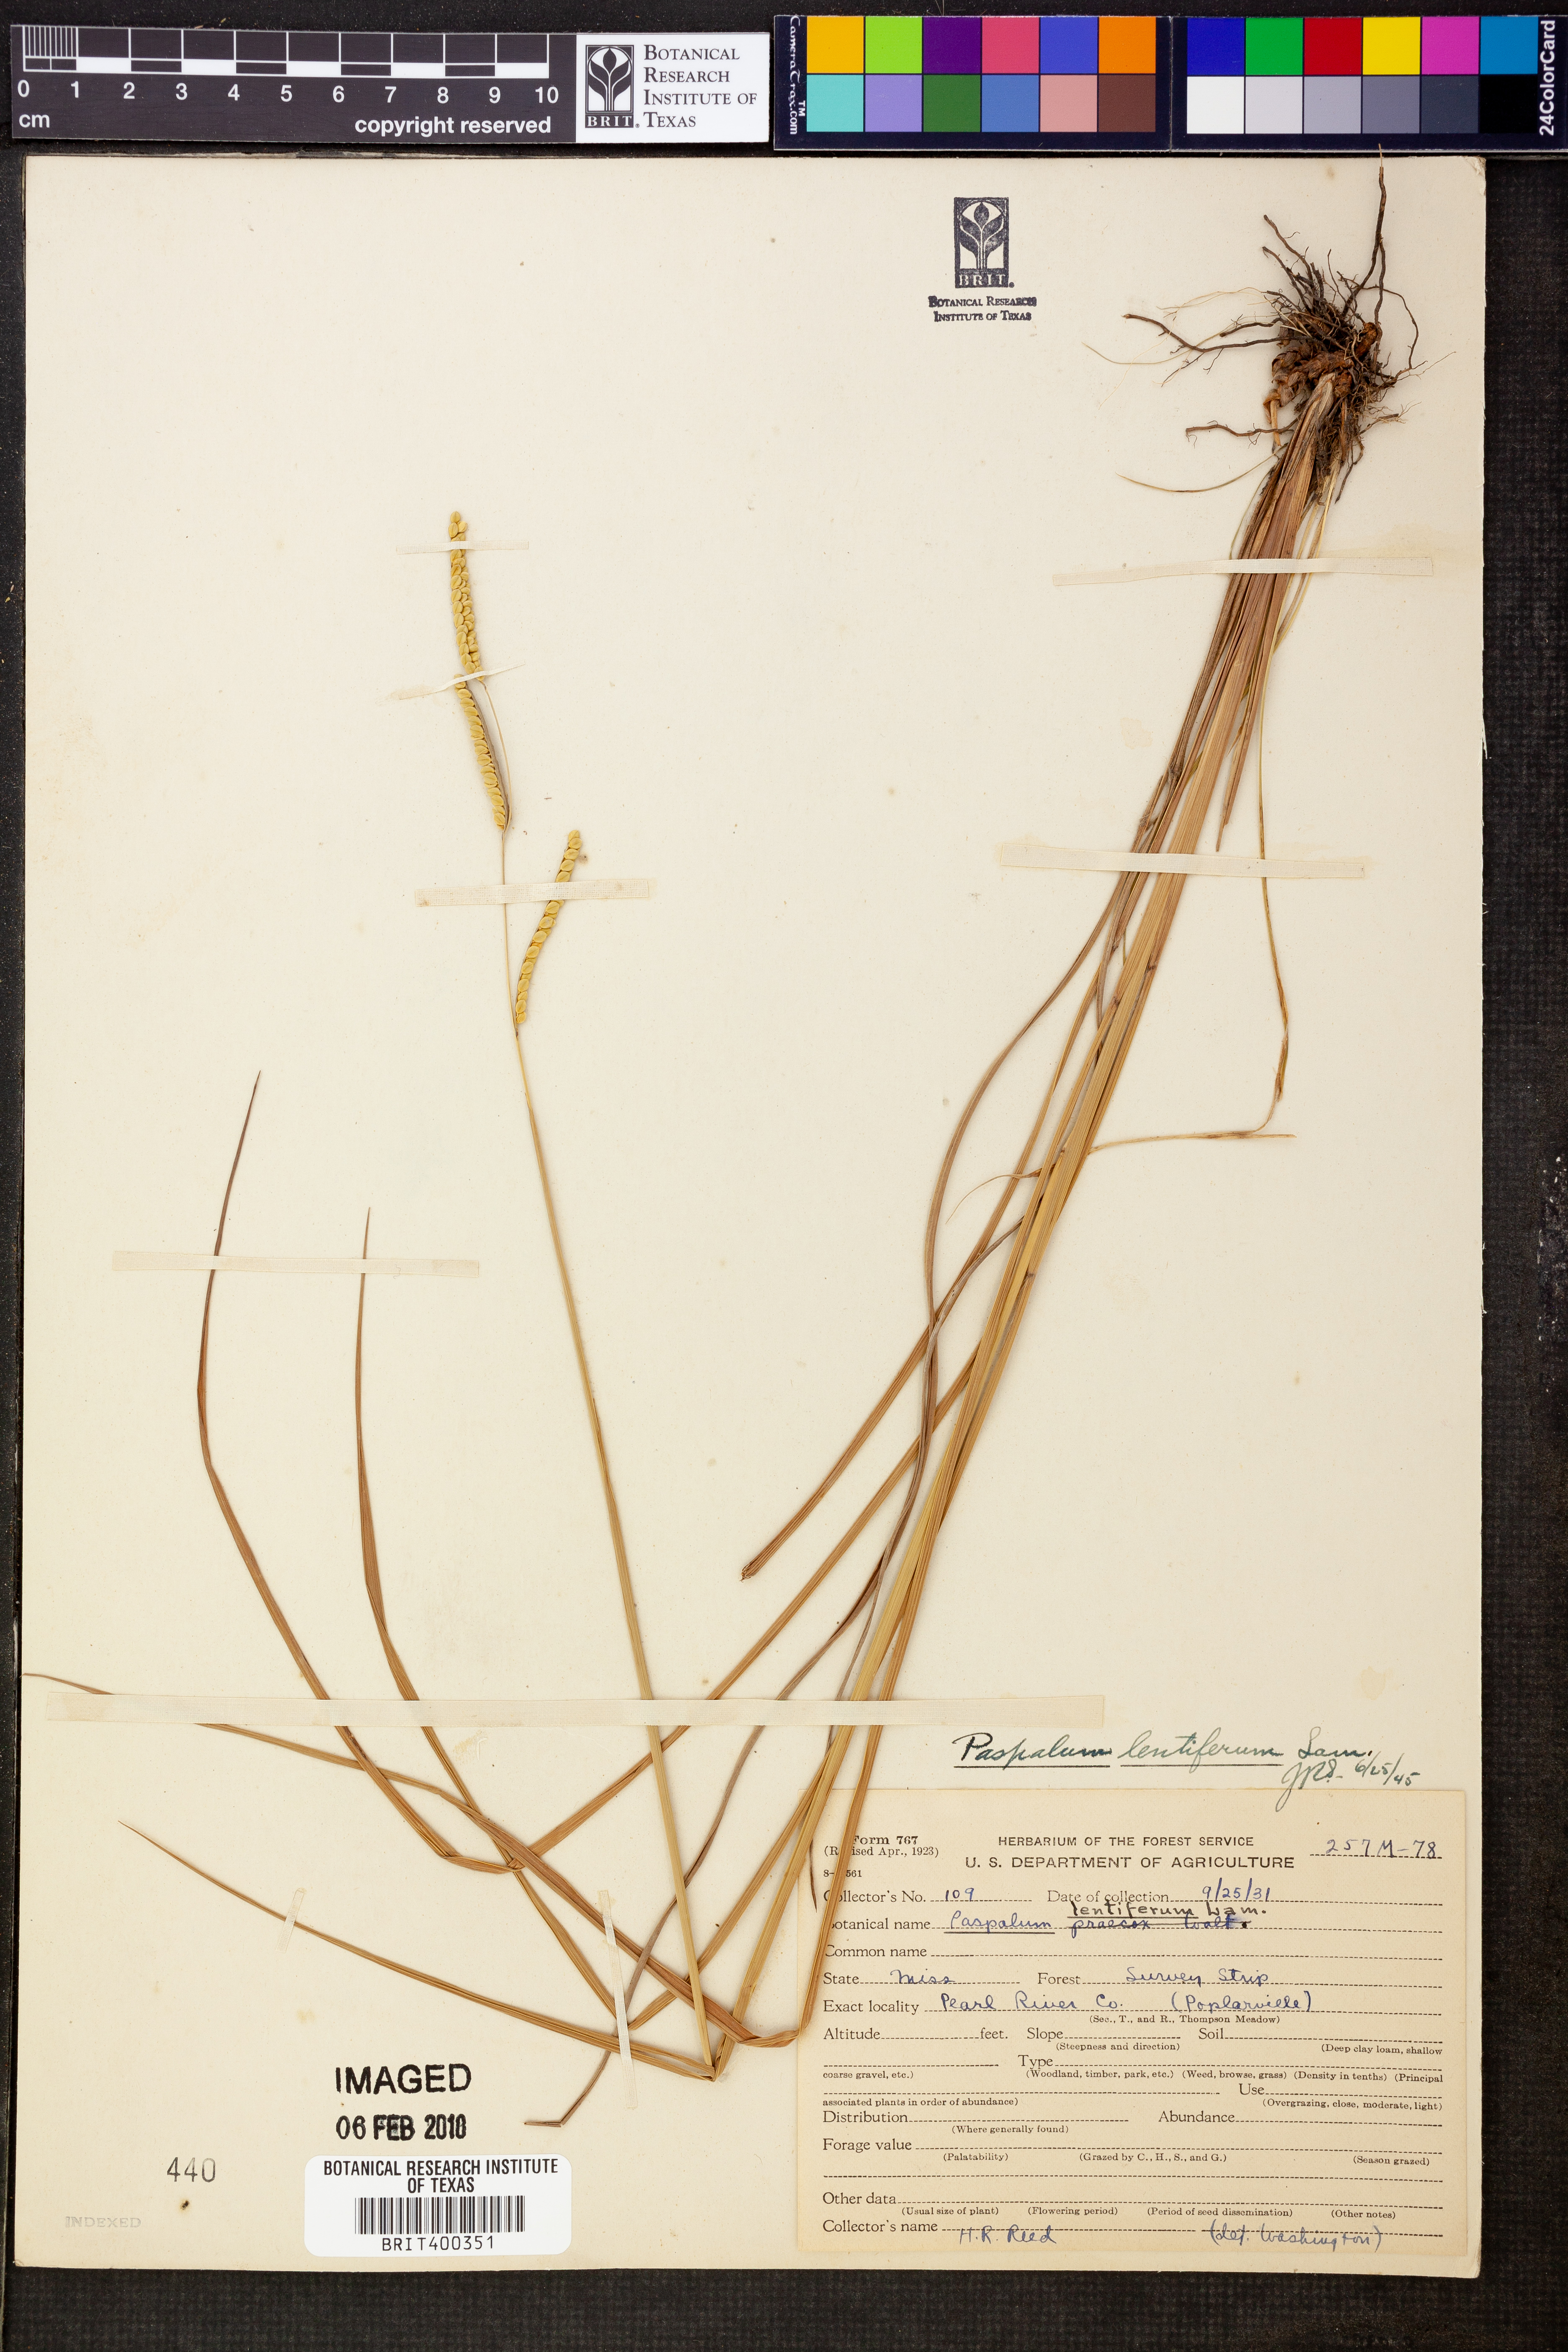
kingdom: Plantae
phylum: Tracheophyta
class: Liliopsida
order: Poales
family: Poaceae
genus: Paspalum
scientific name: Paspalum praecox
